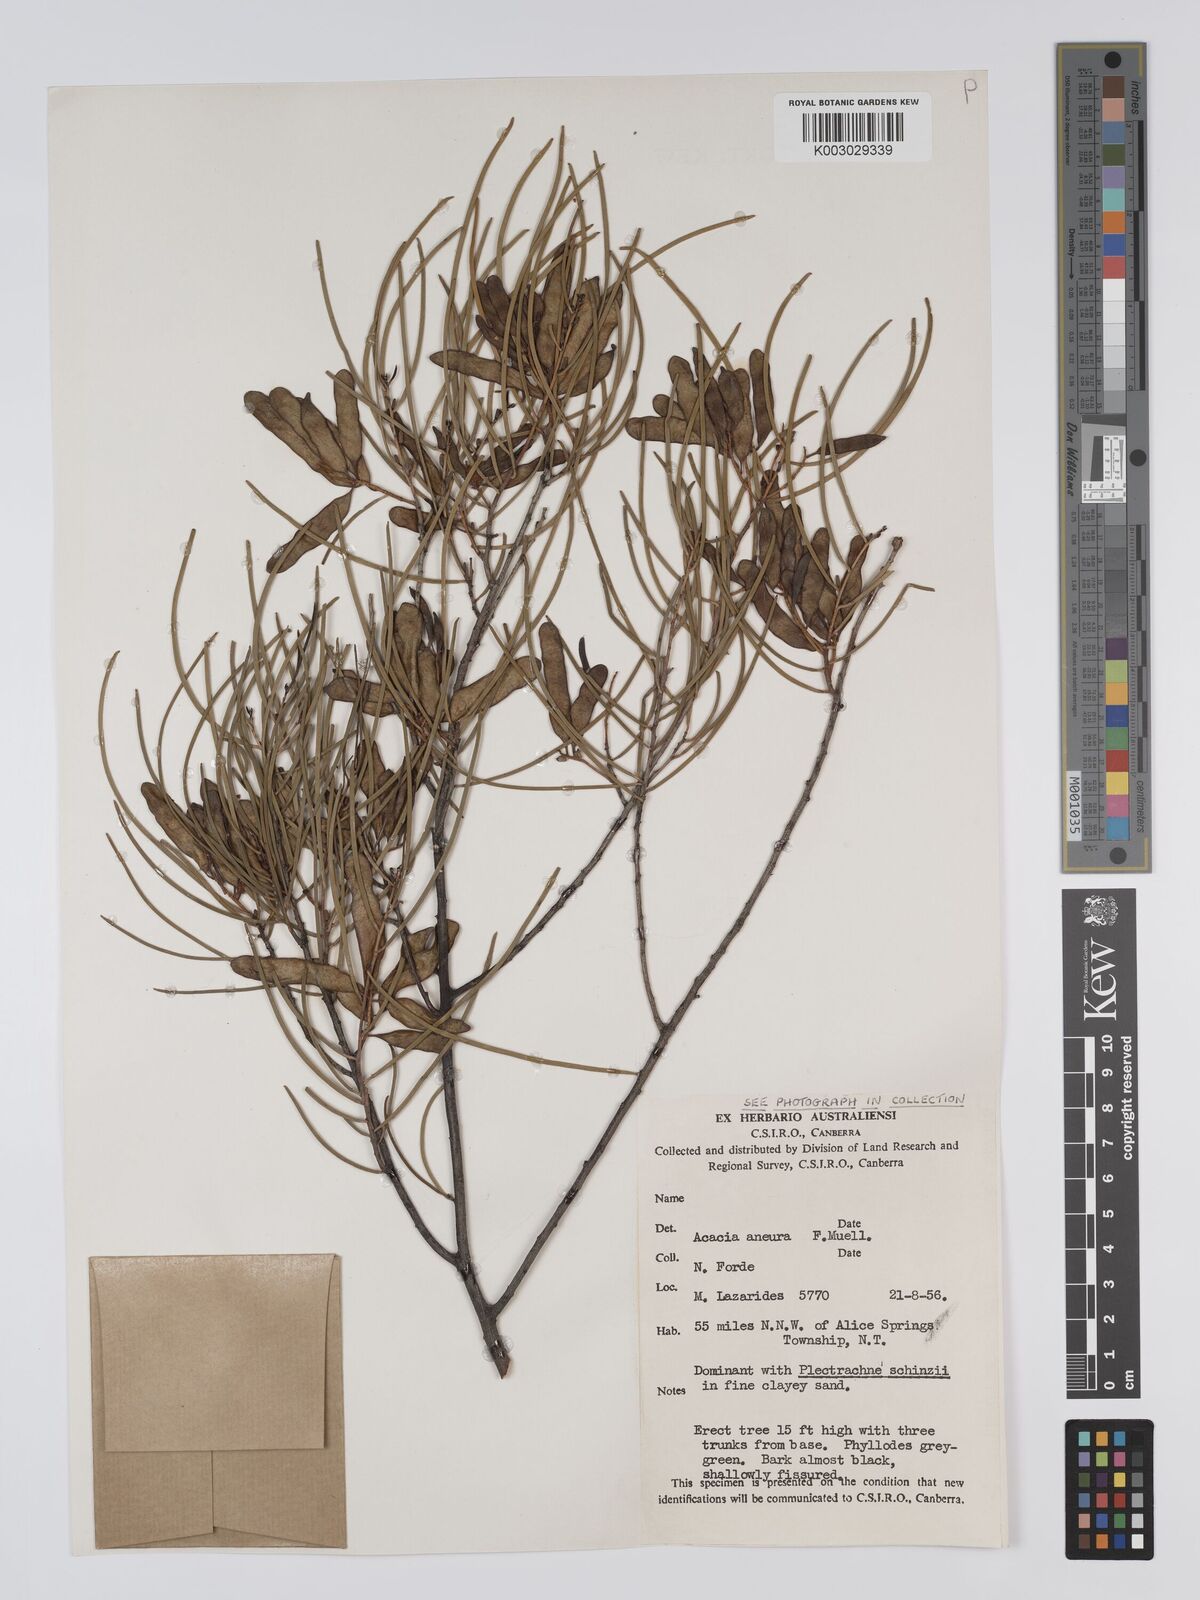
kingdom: Plantae
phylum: Tracheophyta
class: Magnoliopsida
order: Fabales
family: Fabaceae
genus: Acacia
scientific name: Acacia aneura
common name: Mulga
